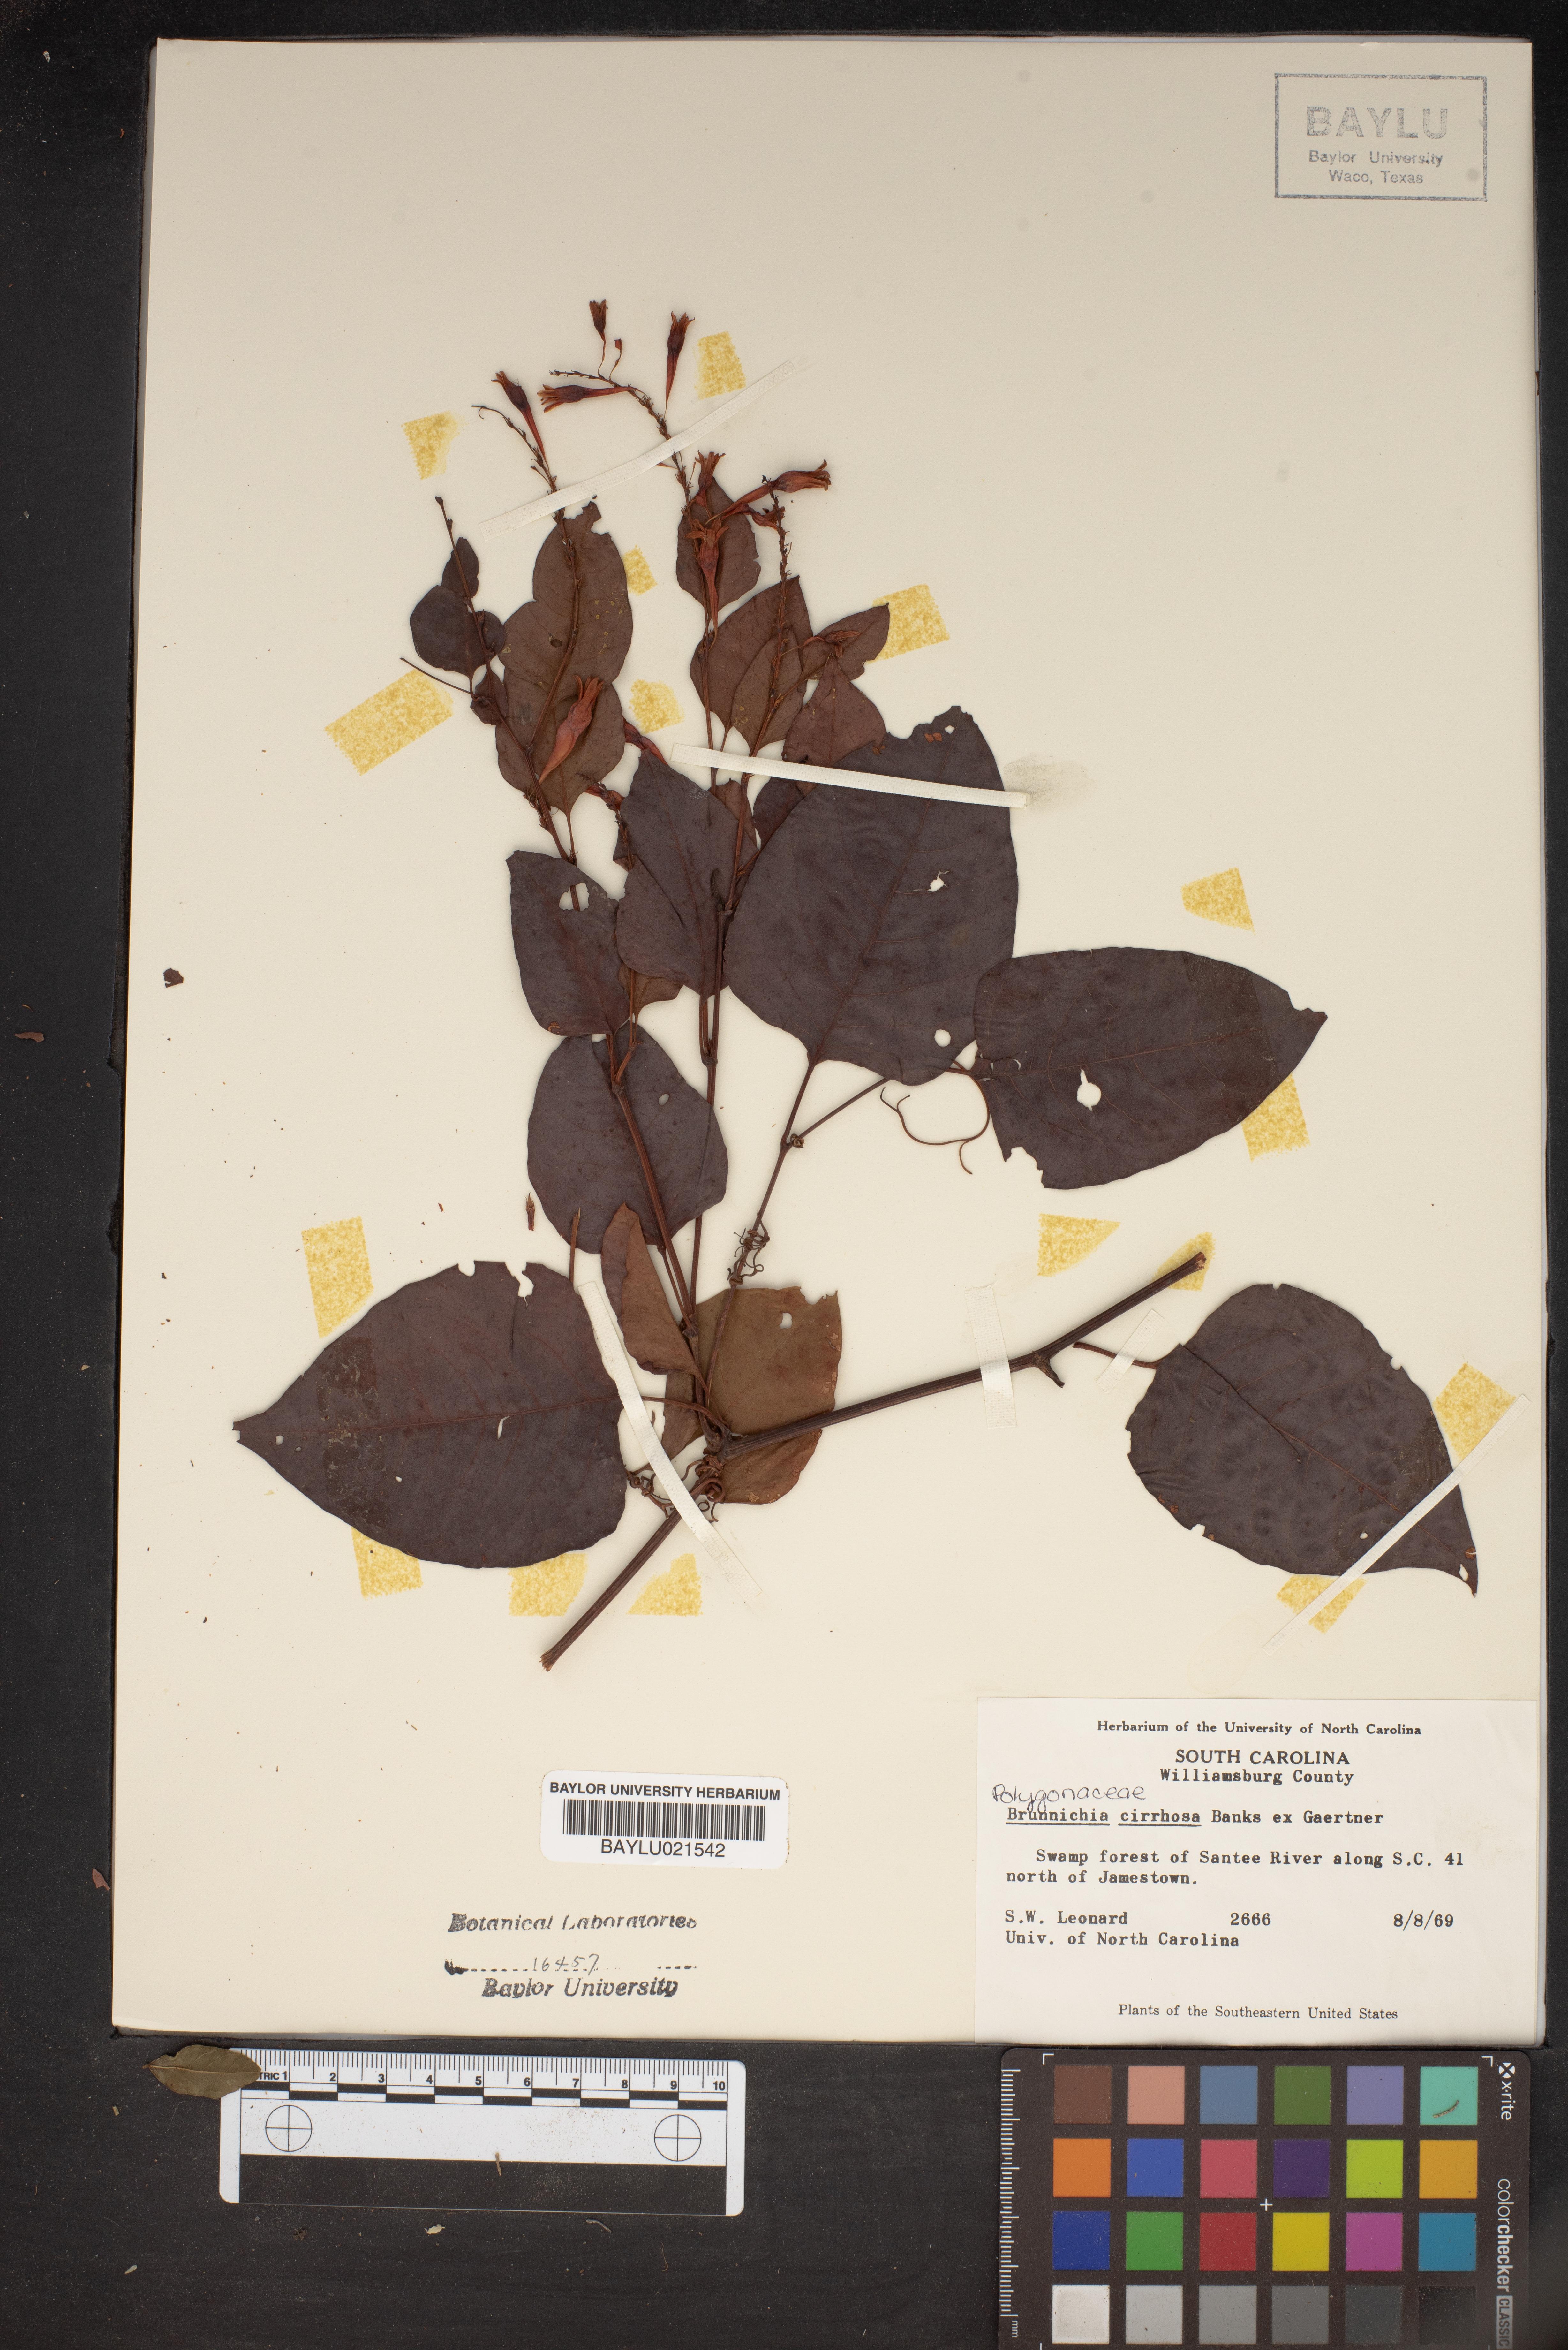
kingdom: Plantae
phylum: Tracheophyta
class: Magnoliopsida
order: Caryophyllales
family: Polygonaceae
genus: Brunnichia
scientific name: Brunnichia ovata
